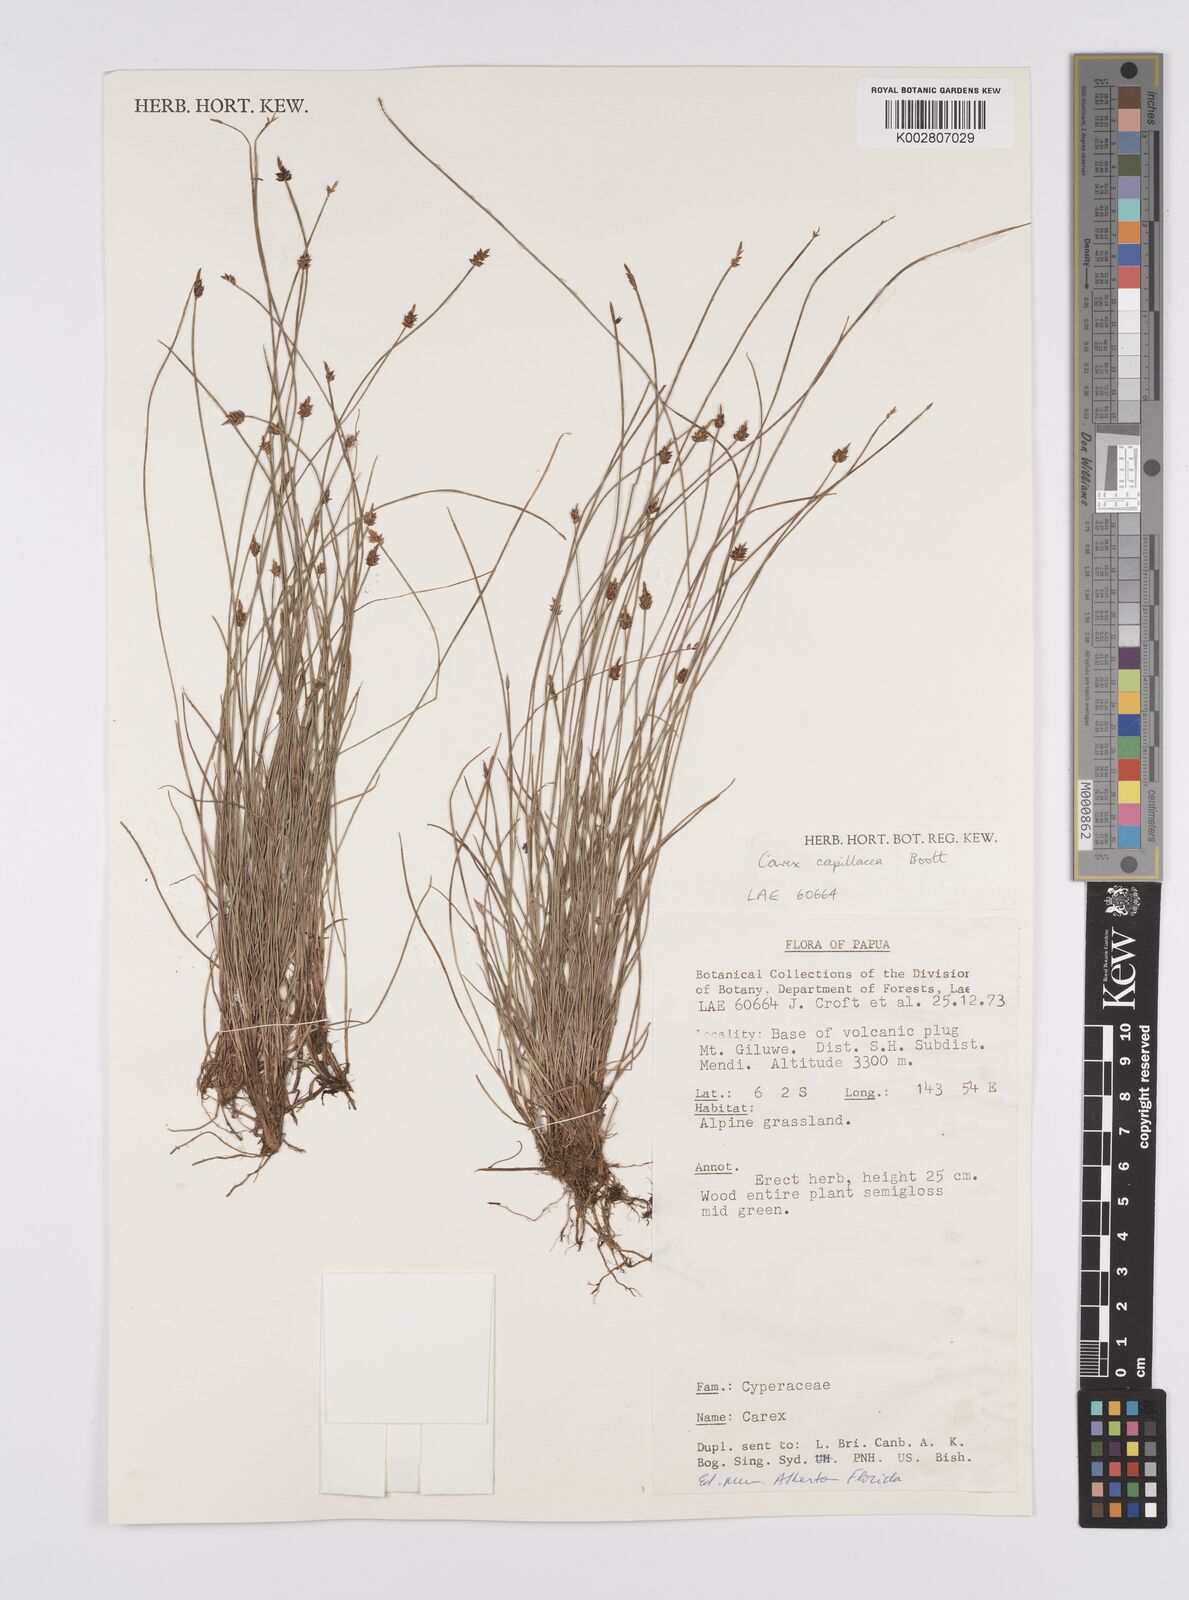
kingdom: Plantae
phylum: Tracheophyta
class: Liliopsida
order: Poales
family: Cyperaceae
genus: Carex
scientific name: Carex capillacea
